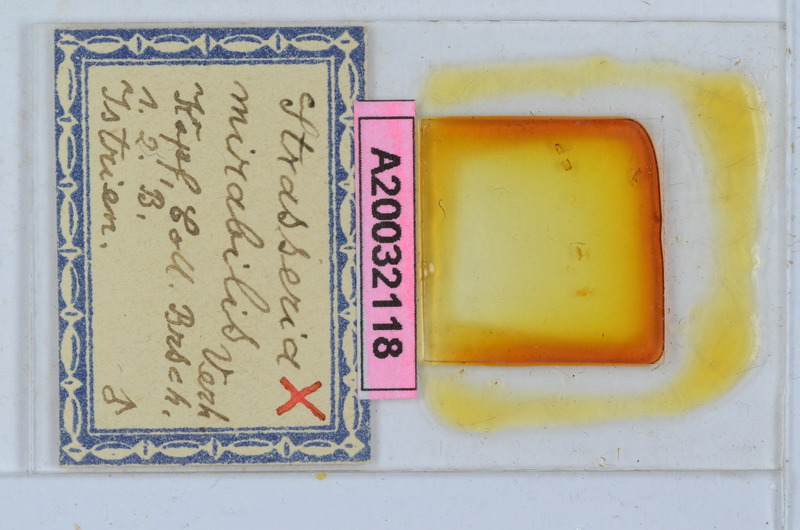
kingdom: Animalia
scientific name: Animalia
